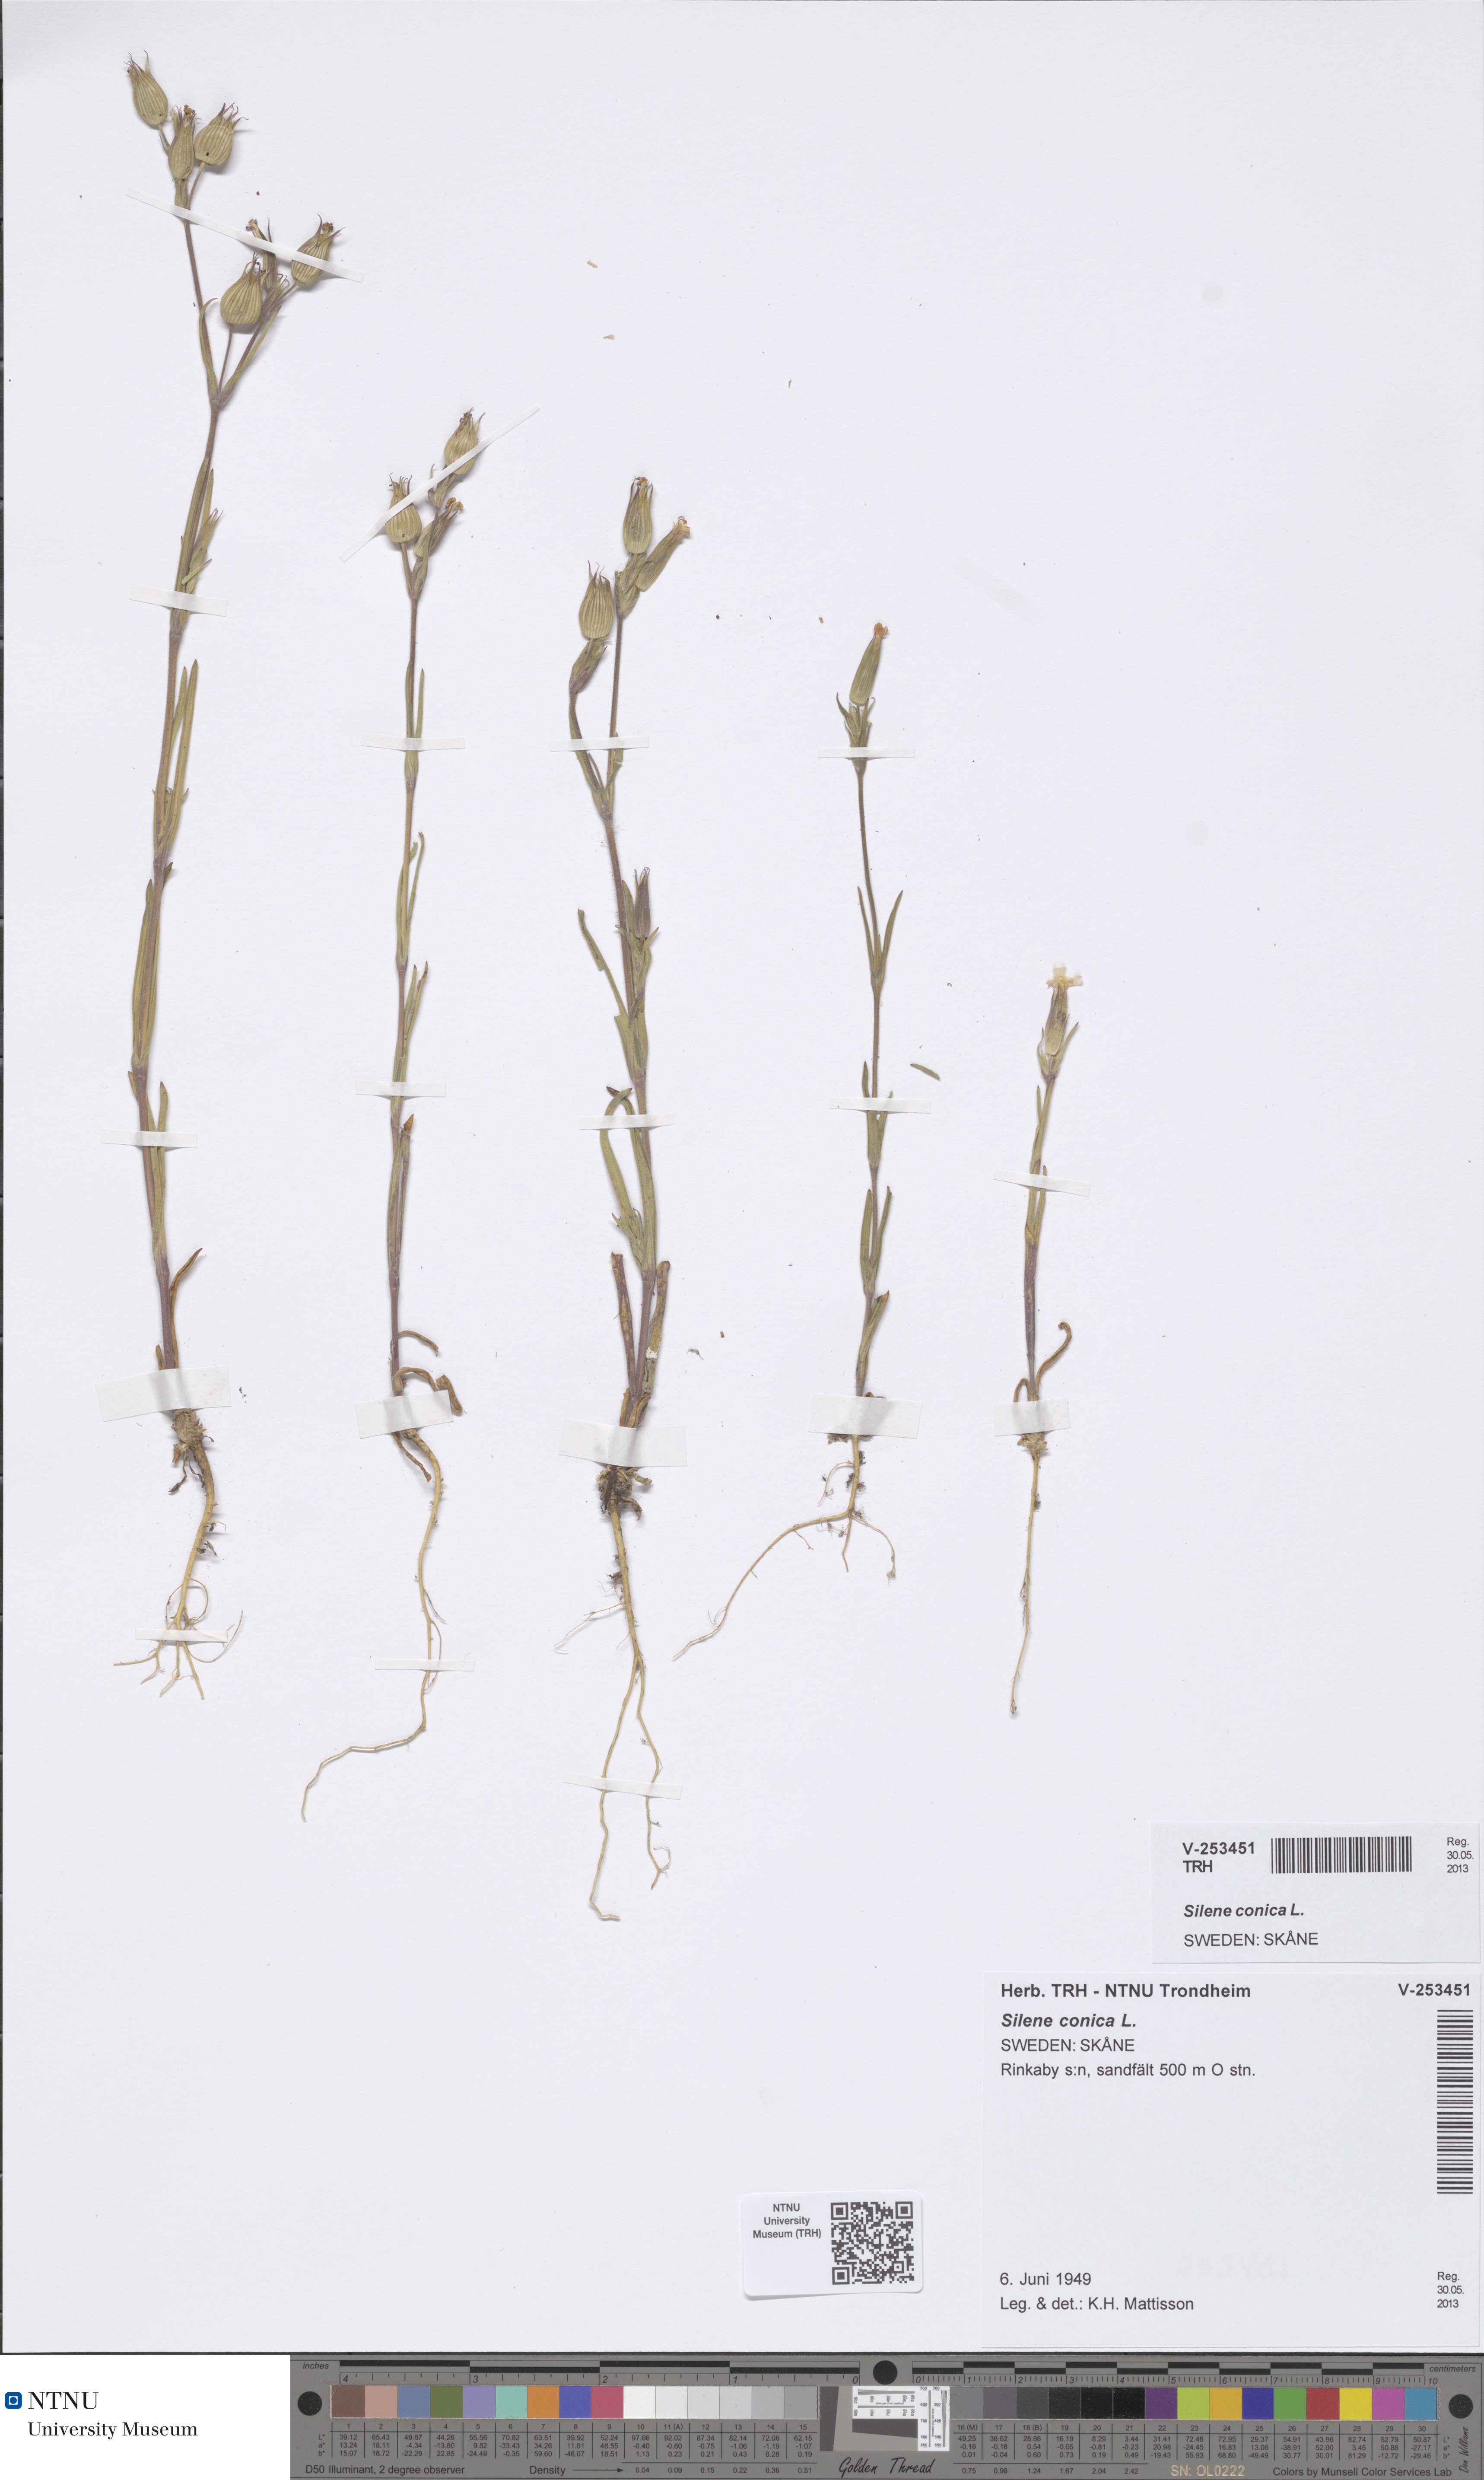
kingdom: Plantae
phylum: Tracheophyta
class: Magnoliopsida
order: Caryophyllales
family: Caryophyllaceae
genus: Silene
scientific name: Silene conica
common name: Sand catchfly
